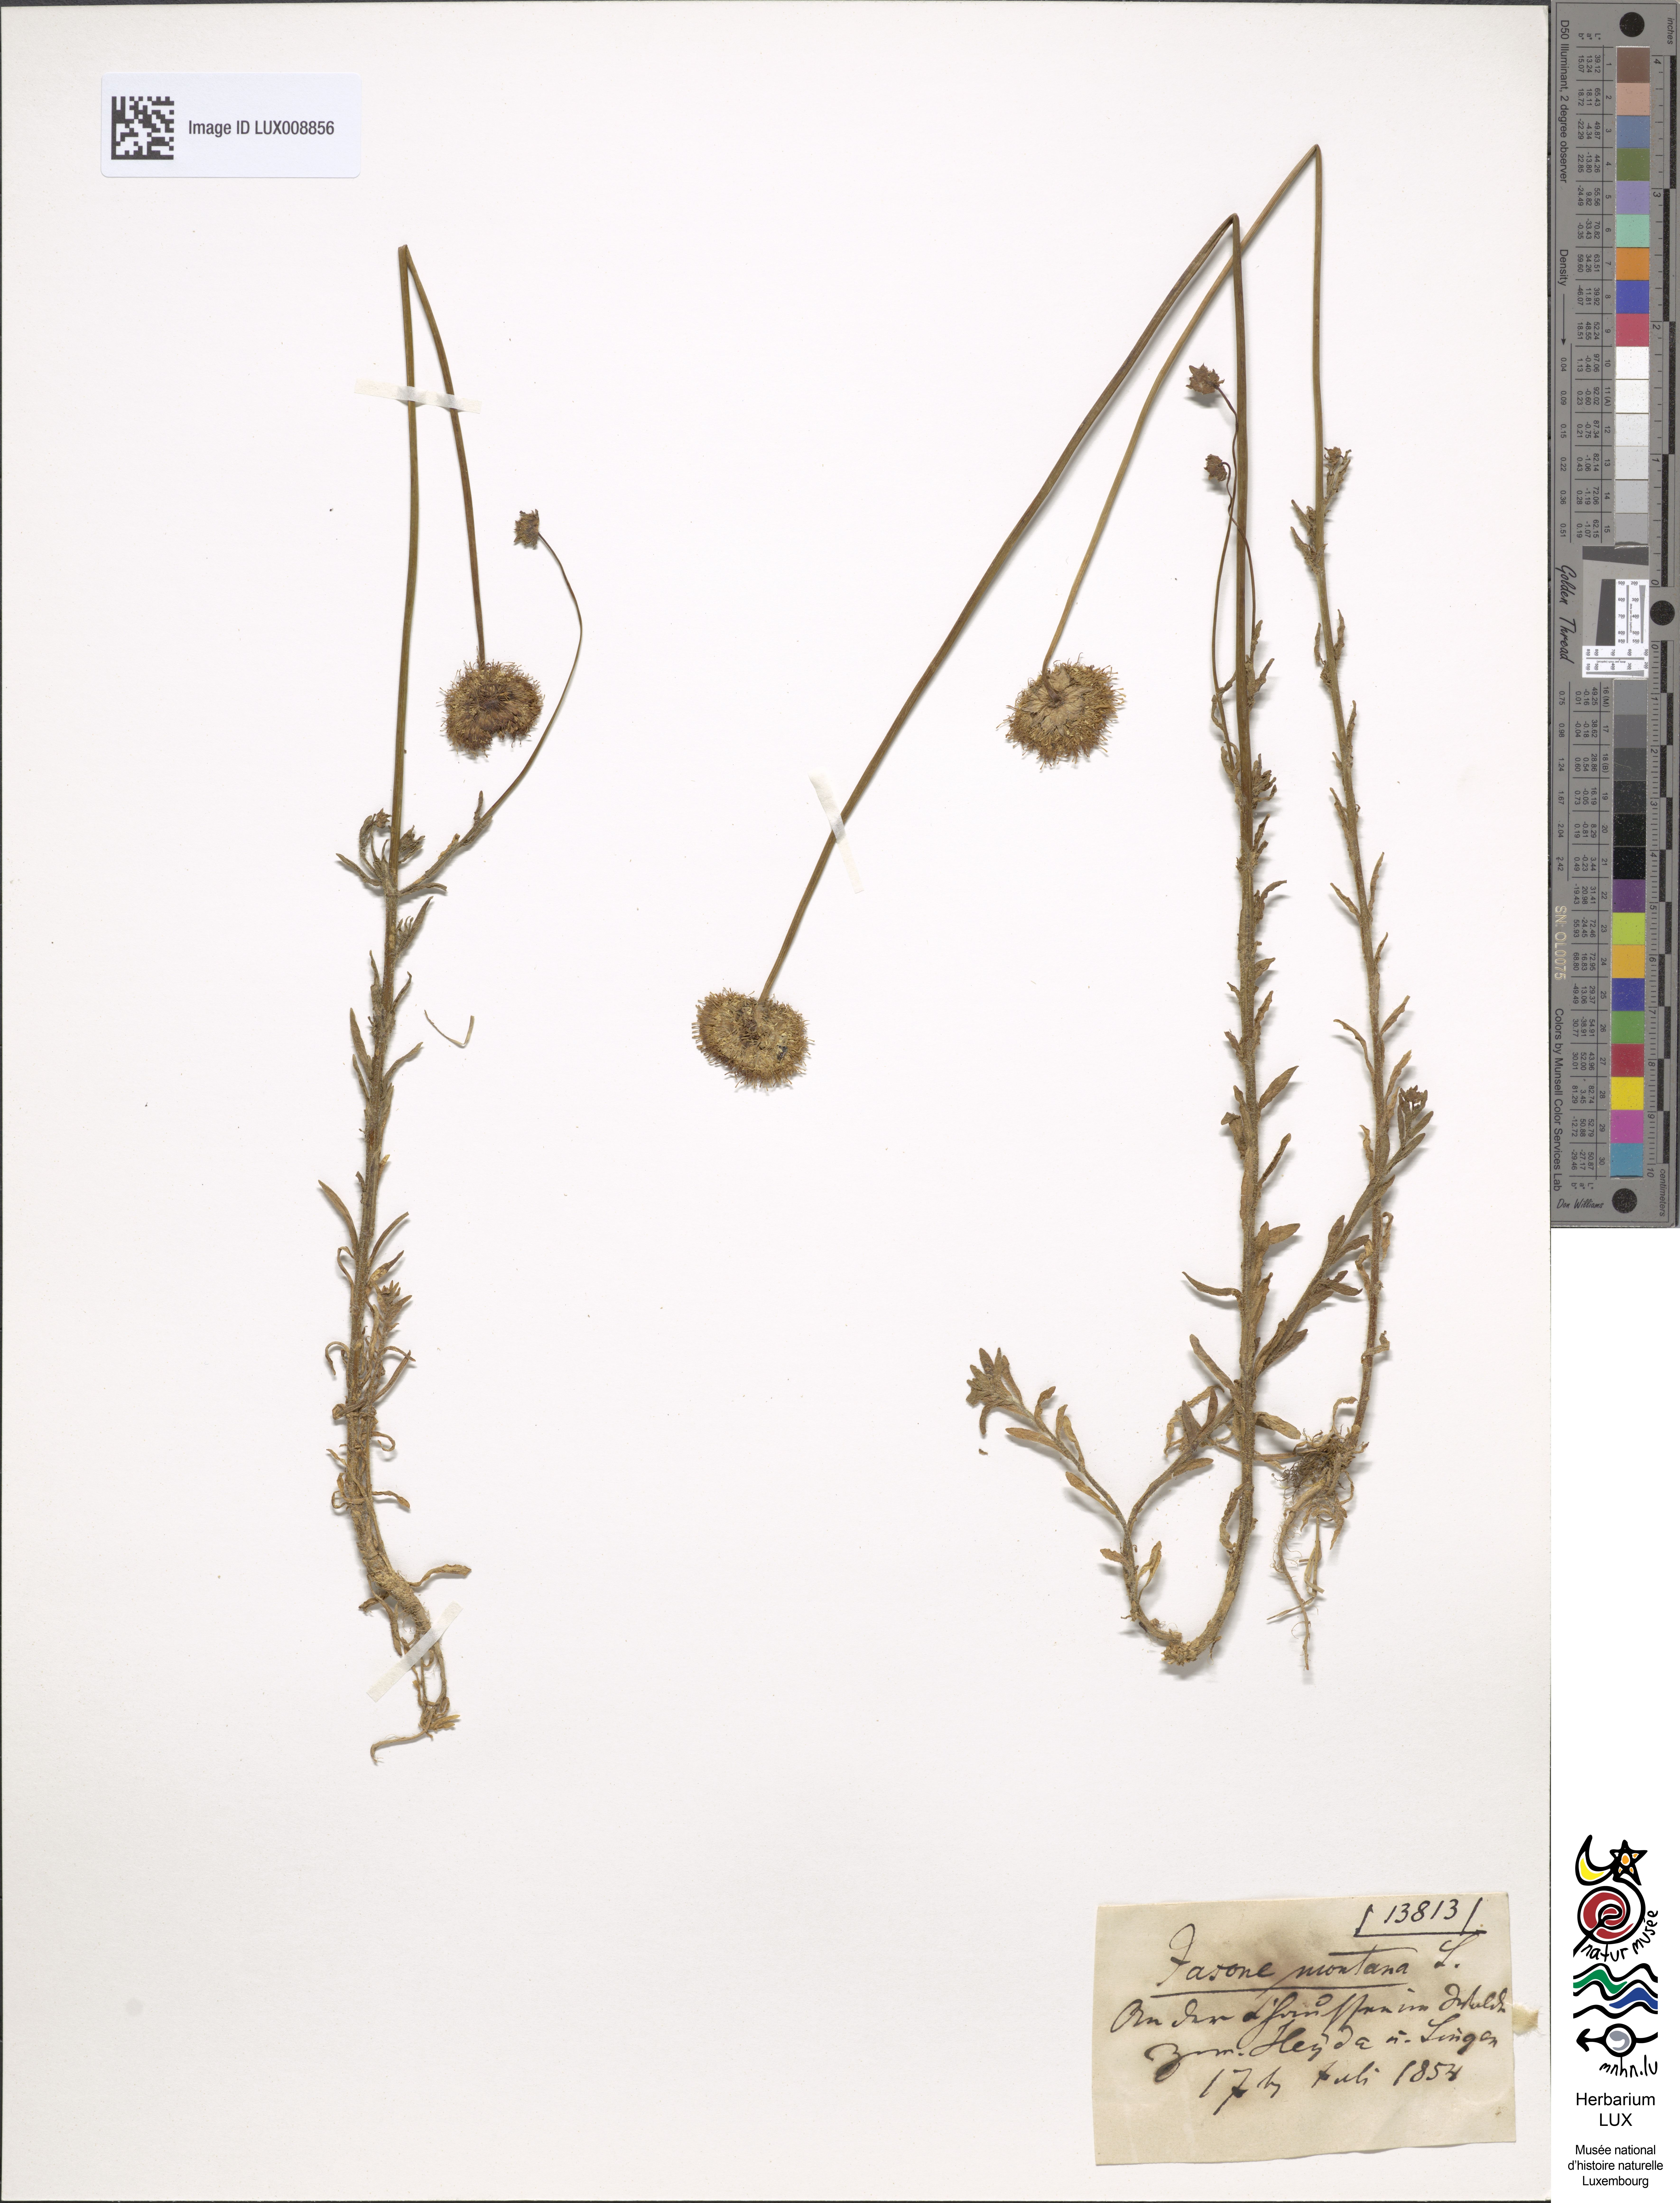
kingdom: Plantae
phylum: Tracheophyta
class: Magnoliopsida
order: Asterales
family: Campanulaceae
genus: Jasione
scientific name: Jasione montana
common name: Sheep's-bit
